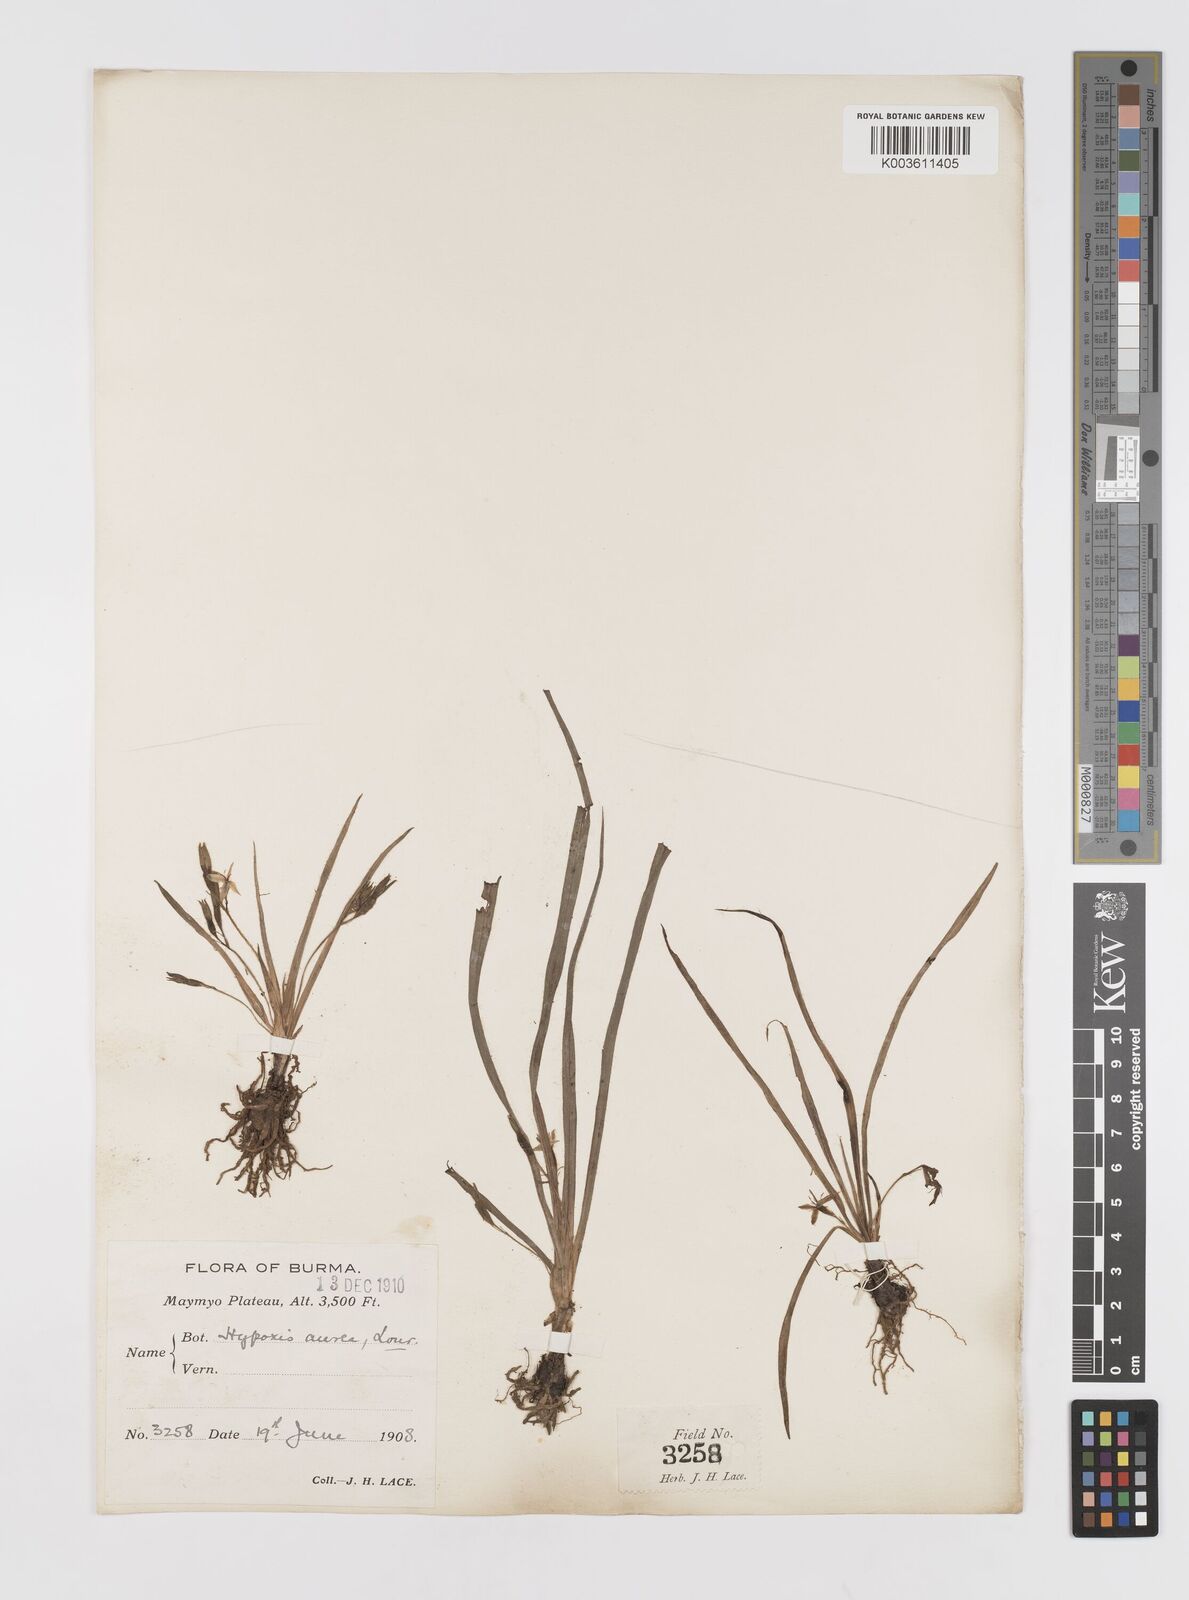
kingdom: Plantae
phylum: Tracheophyta
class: Liliopsida
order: Asparagales
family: Hypoxidaceae
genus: Hypoxis
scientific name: Hypoxis aurea
